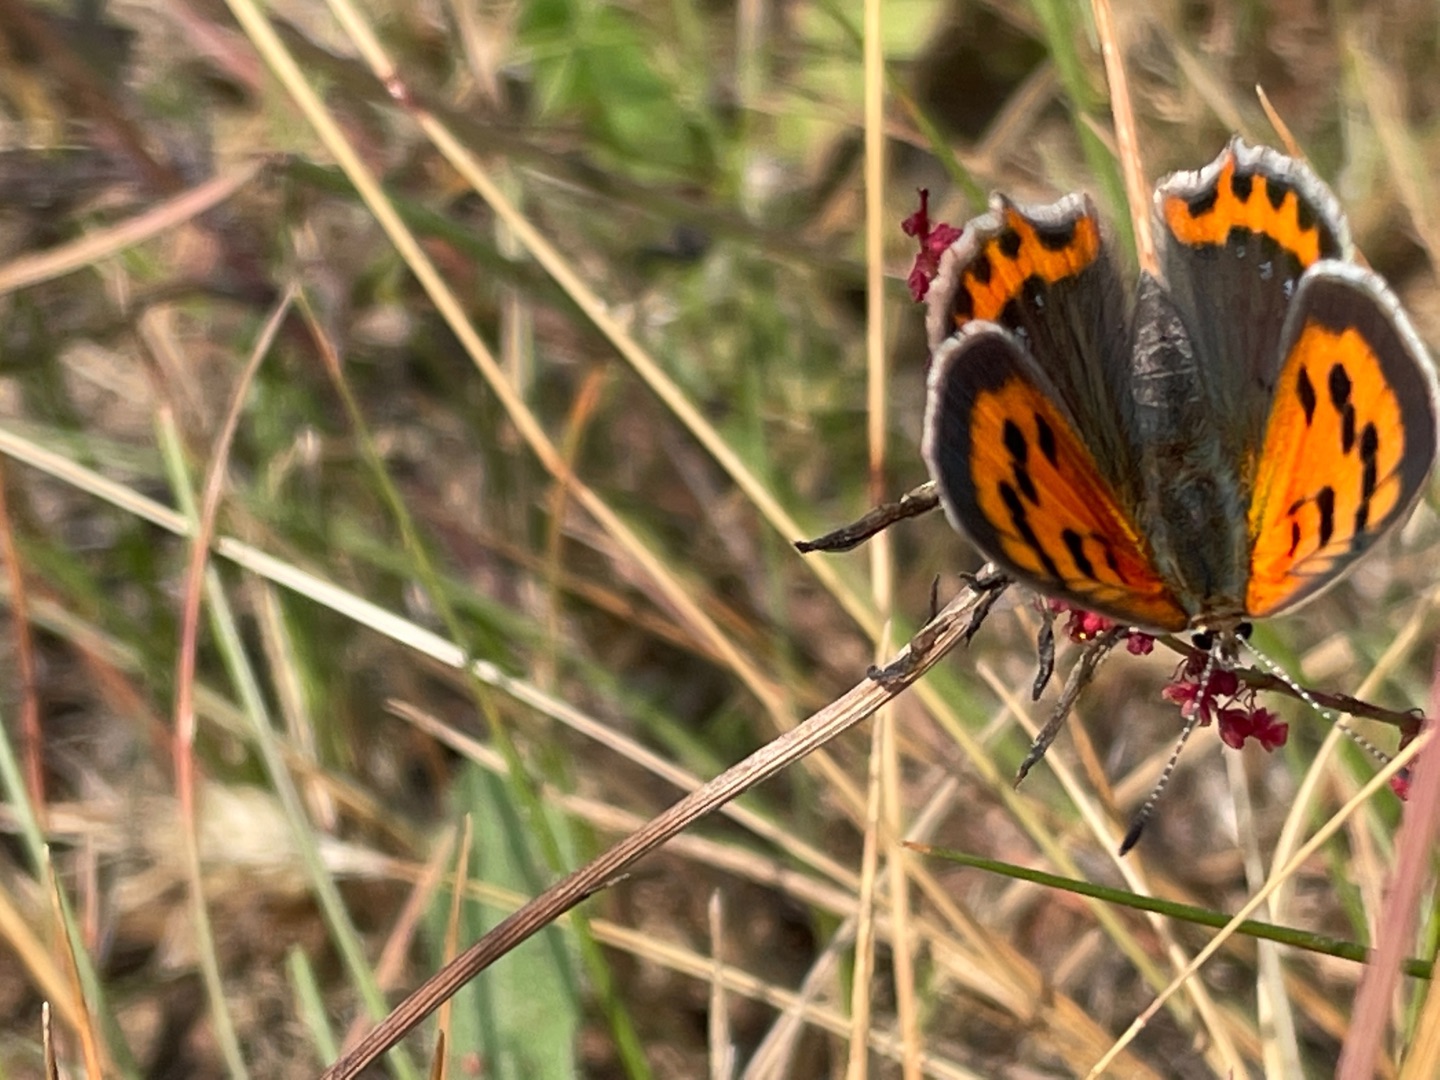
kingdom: Animalia
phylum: Arthropoda
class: Insecta
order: Lepidoptera
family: Lycaenidae
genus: Lycaena
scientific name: Lycaena phlaeas
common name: Lille ildfugl
